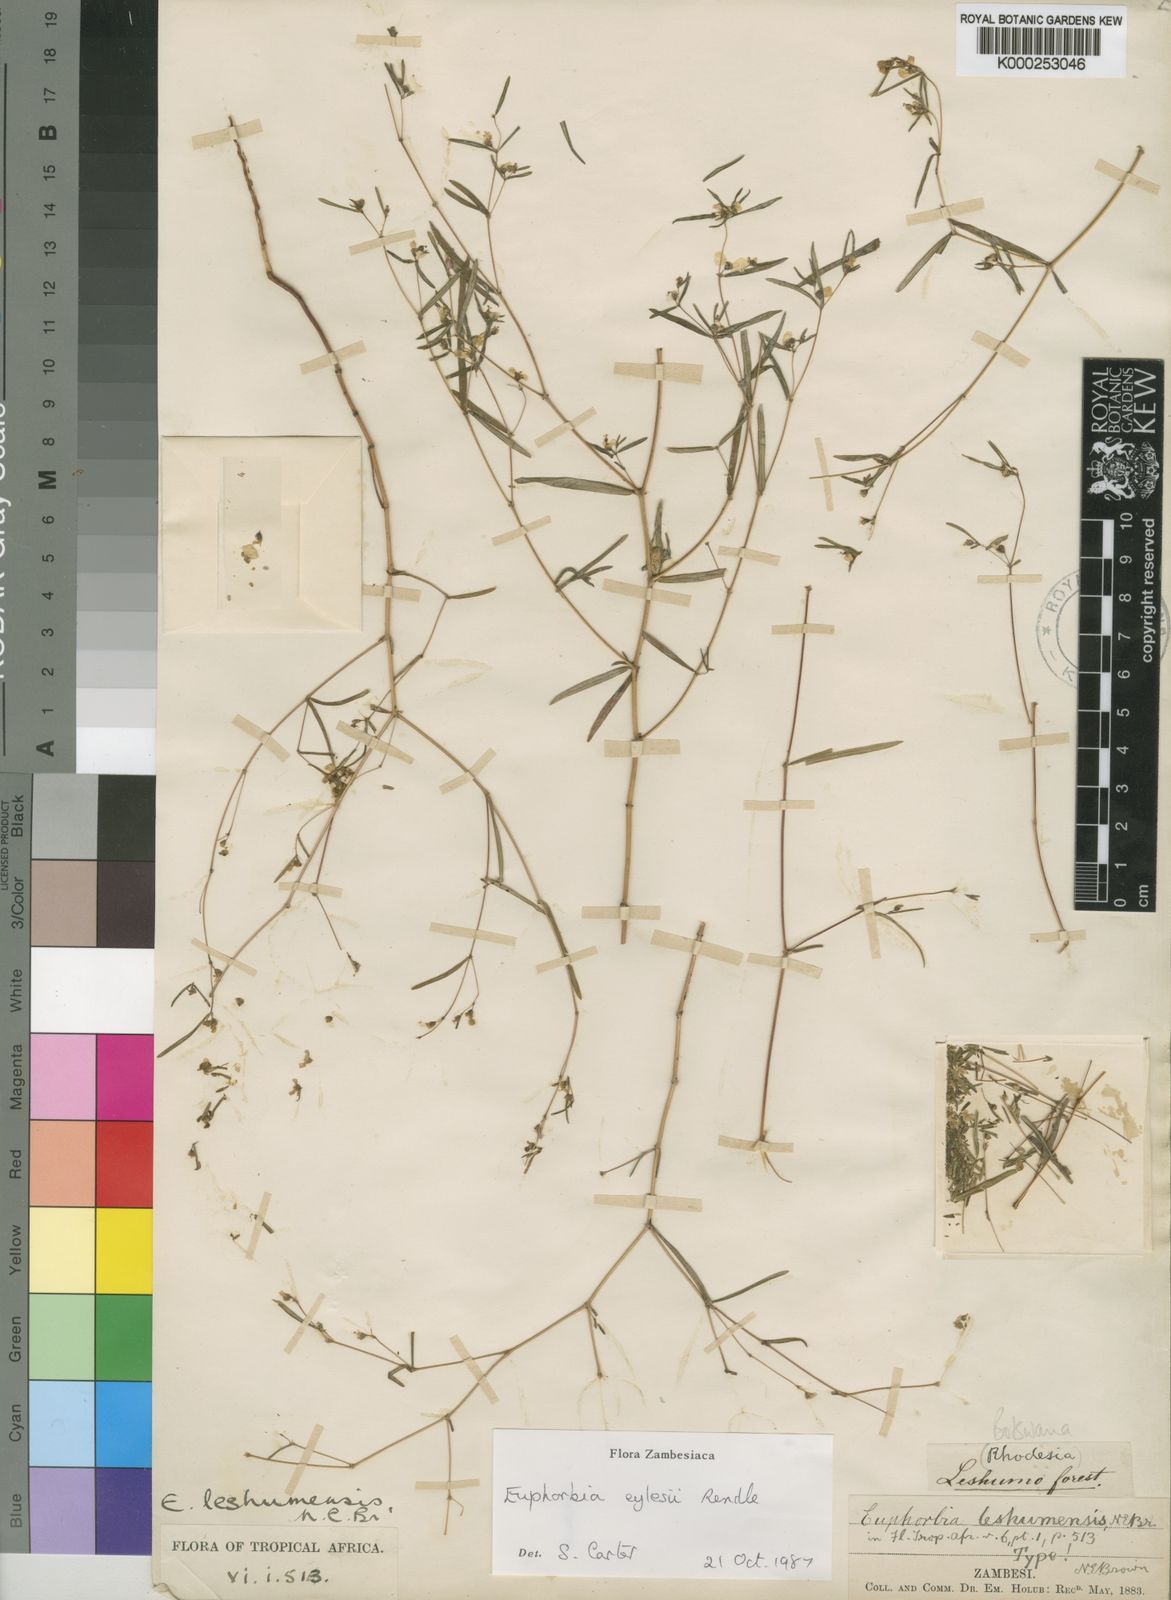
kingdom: Plantae
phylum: Tracheophyta
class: Magnoliopsida
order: Malpighiales
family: Euphorbiaceae
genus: Euphorbia
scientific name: Euphorbia eylesii
